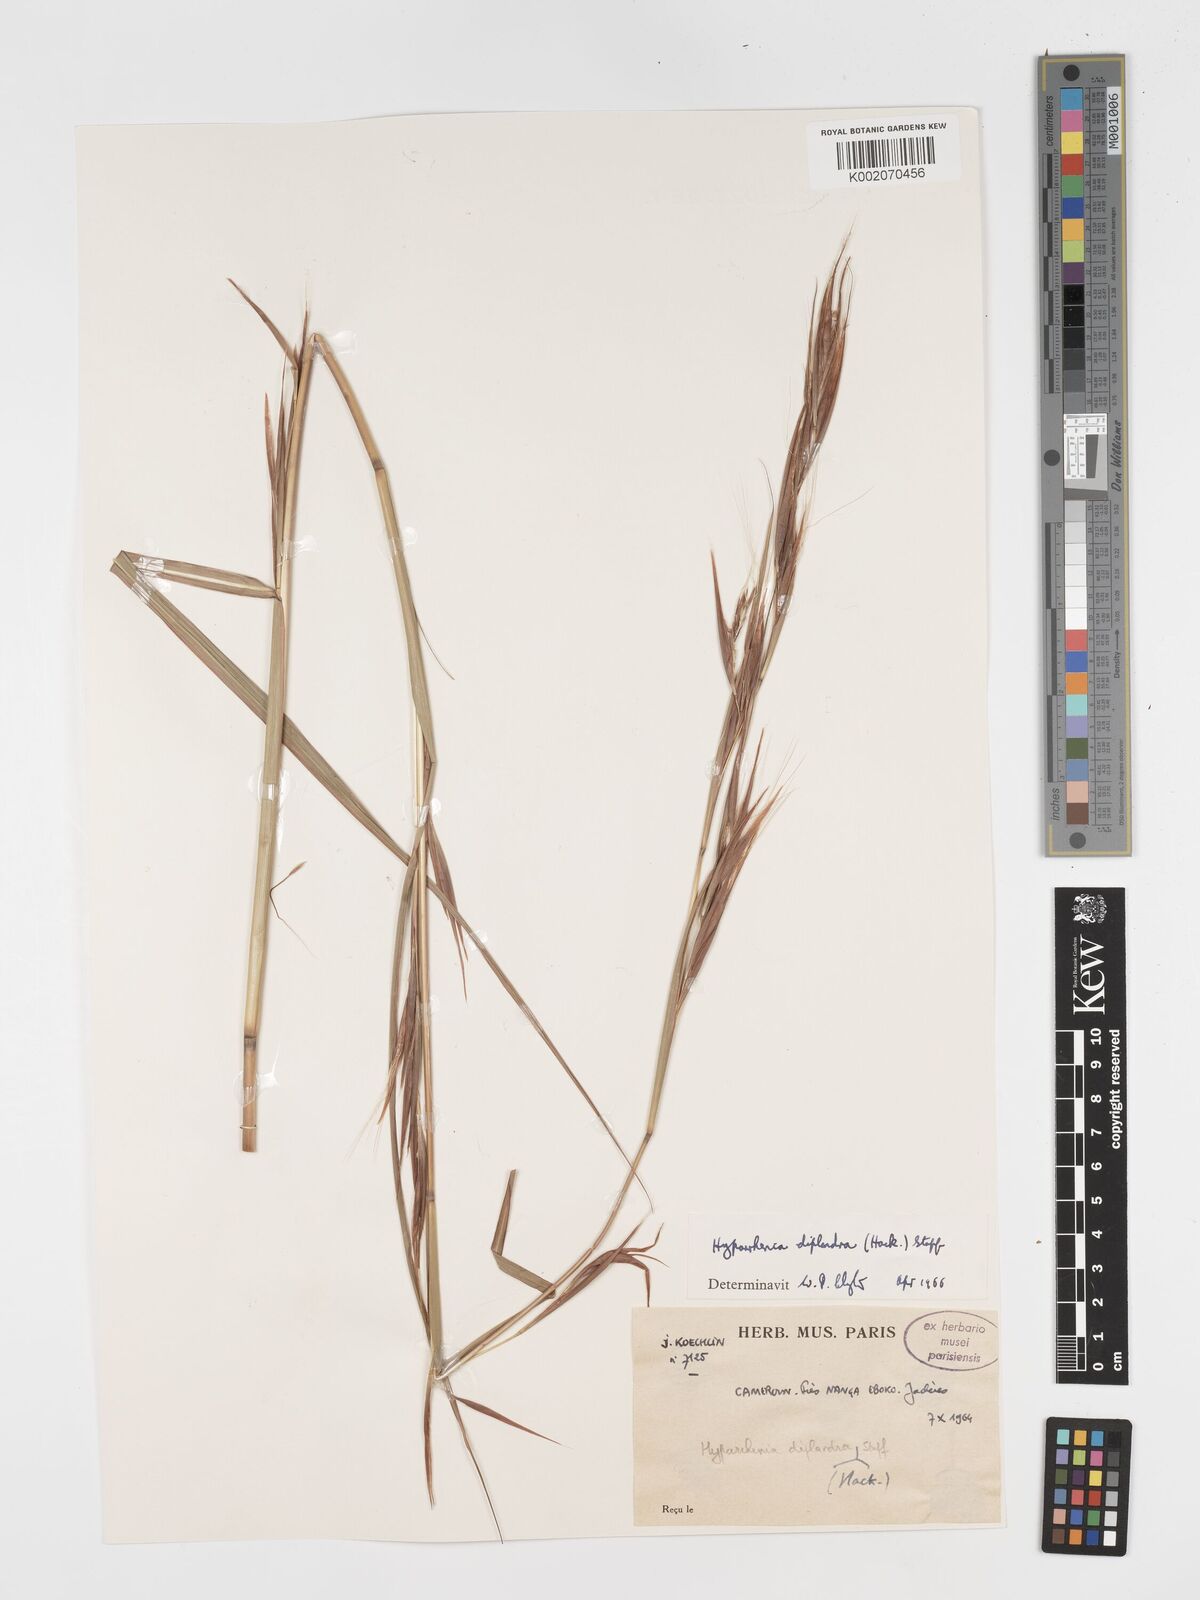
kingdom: Plantae
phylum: Tracheophyta
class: Liliopsida
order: Poales
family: Poaceae
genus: Hyparrhenia
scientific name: Hyparrhenia diplandra
